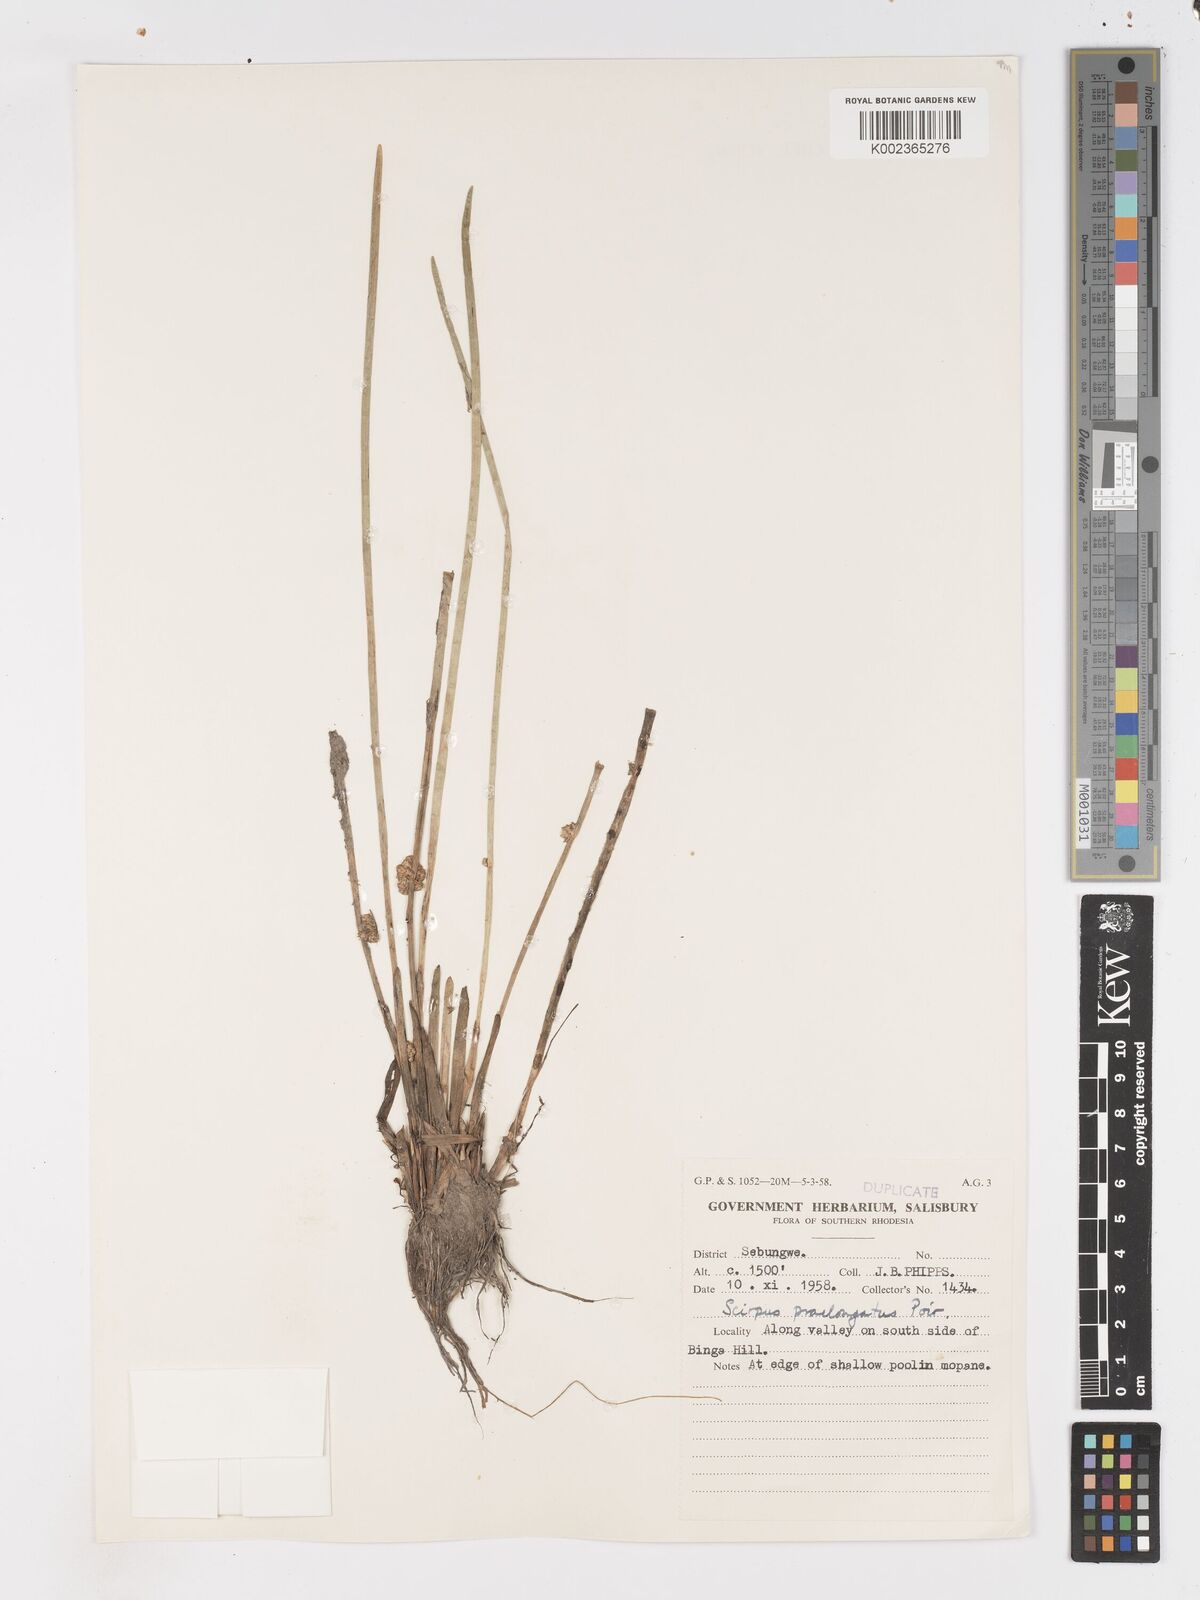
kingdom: Plantae
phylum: Tracheophyta
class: Liliopsida
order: Poales
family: Cyperaceae
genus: Schoenoplectiella
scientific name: Schoenoplectiella senegalensis
